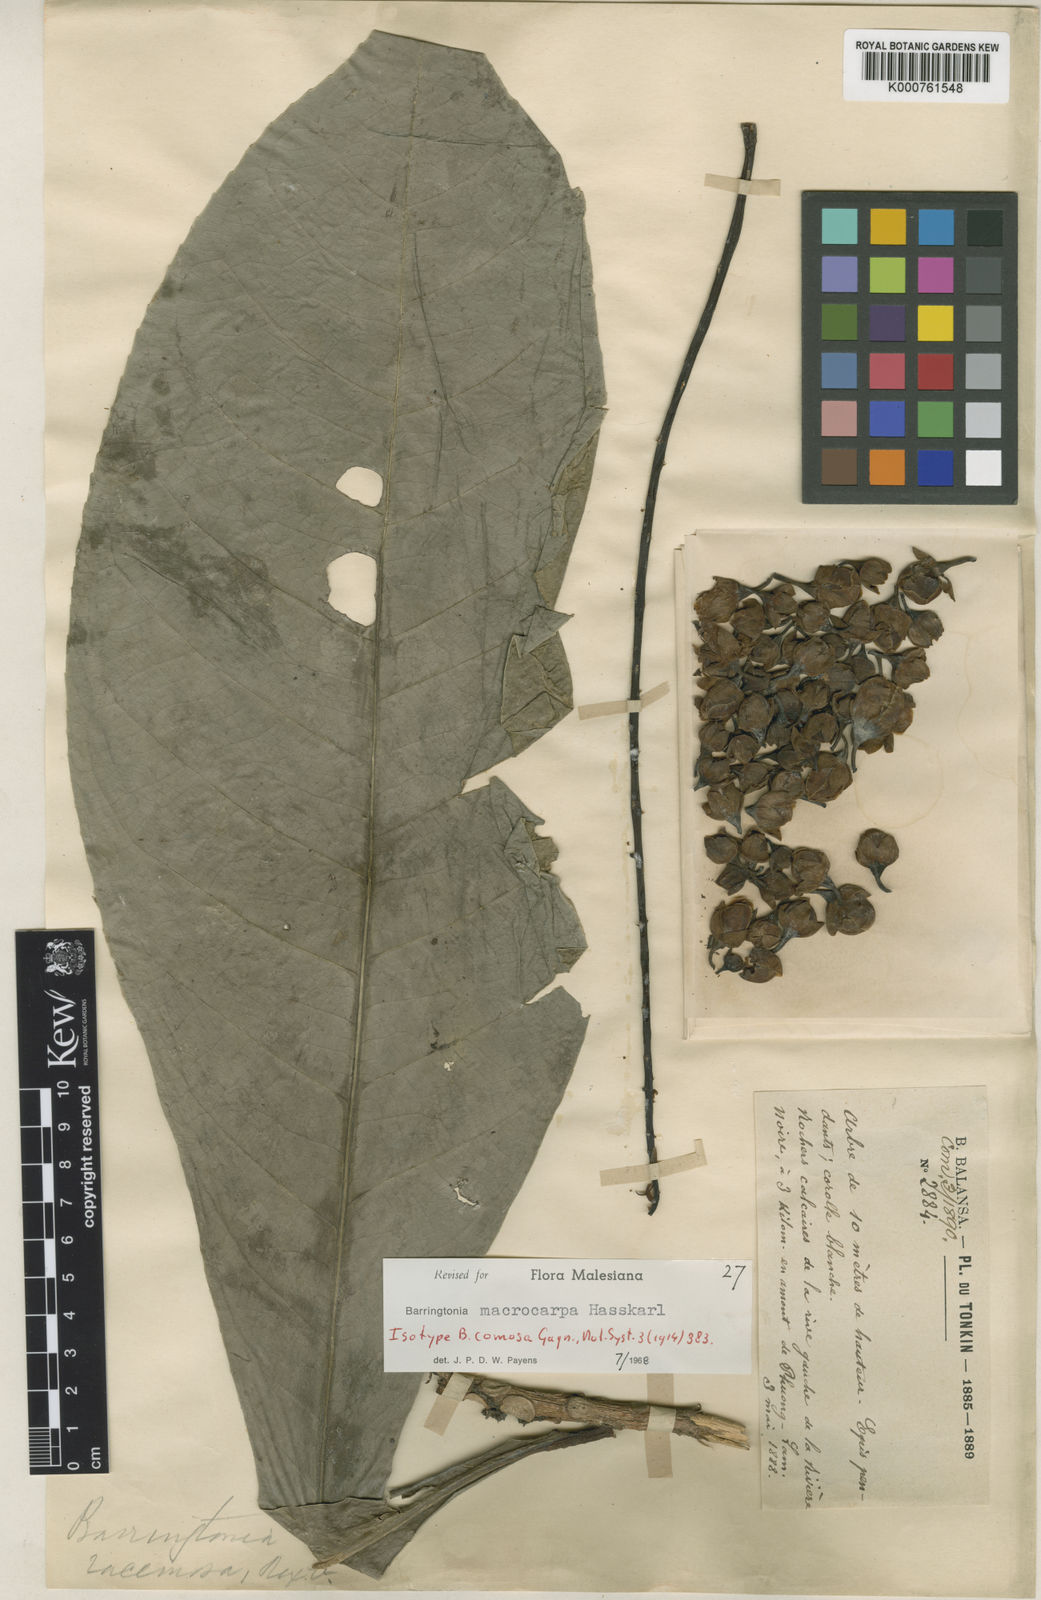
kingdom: Plantae
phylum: Tracheophyta
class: Magnoliopsida
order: Ericales
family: Lecythidaceae
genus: Barringtonia
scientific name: Barringtonia macrocarpa
